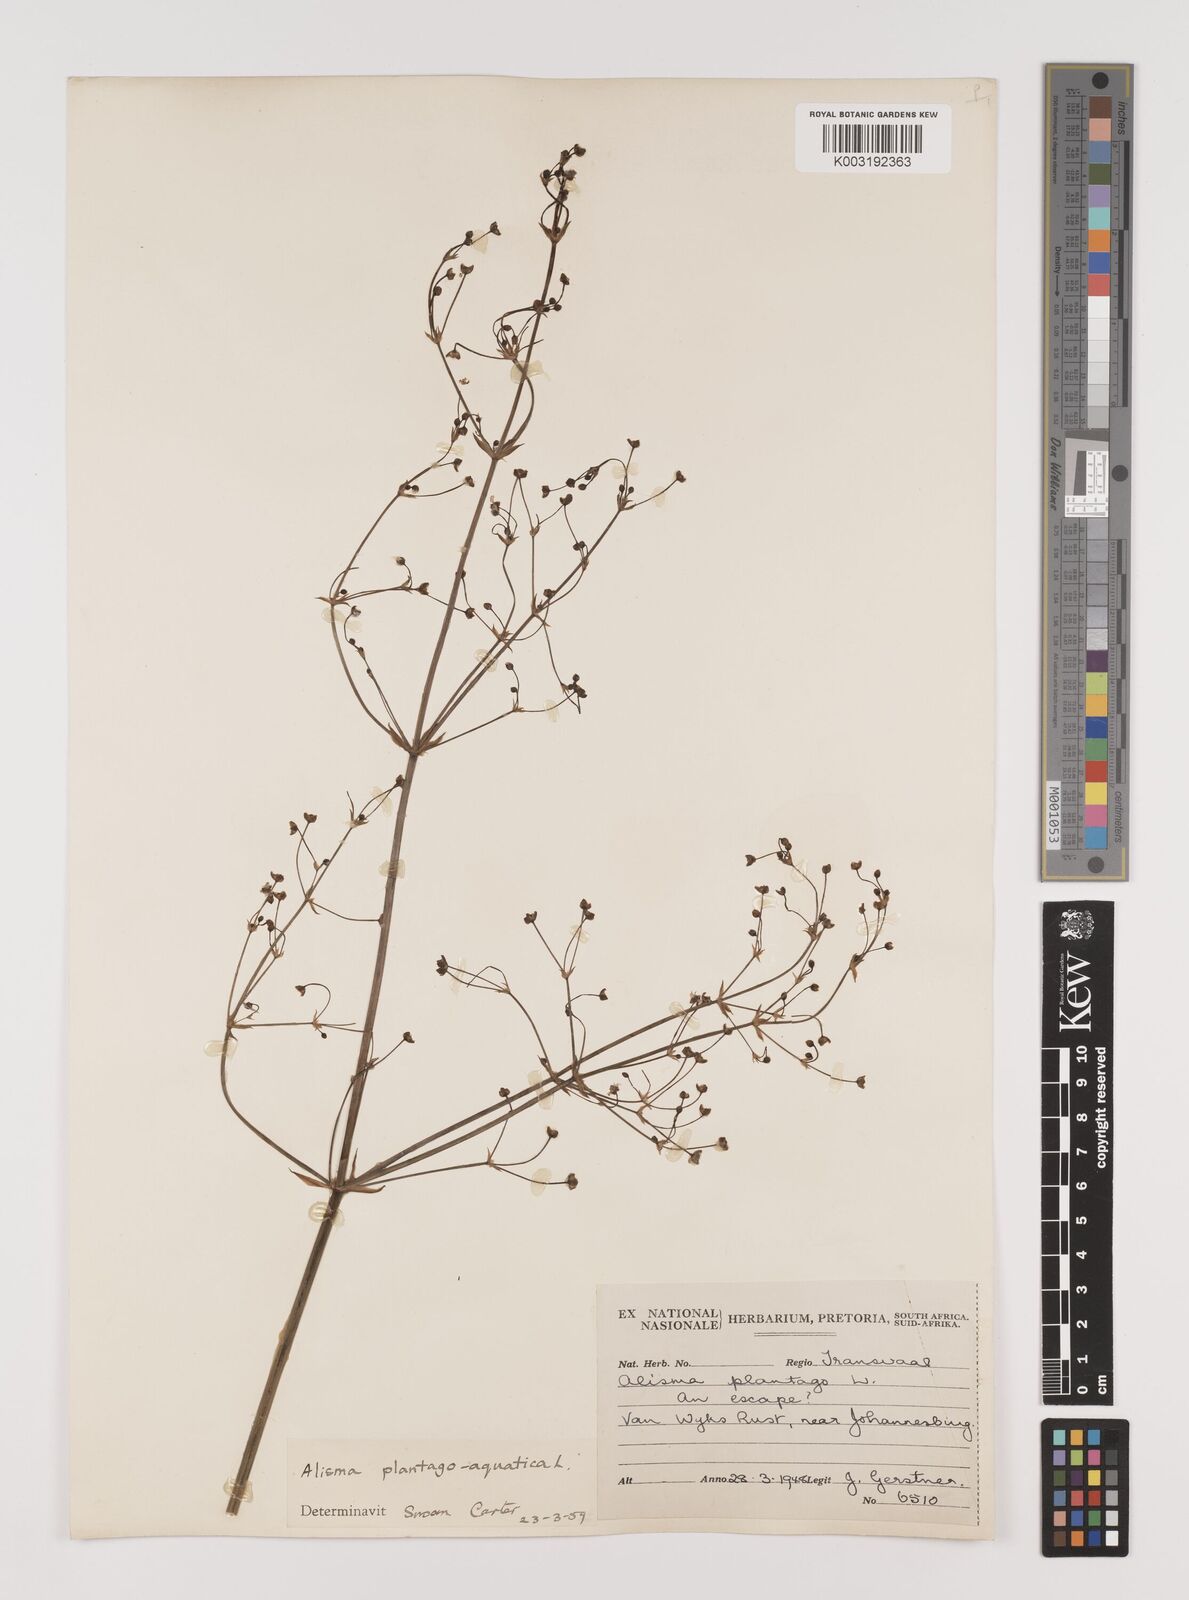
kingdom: Plantae
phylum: Tracheophyta
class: Liliopsida
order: Alismatales
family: Alismataceae
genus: Alisma
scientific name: Alisma plantago-aquatica
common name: Water-plantain
